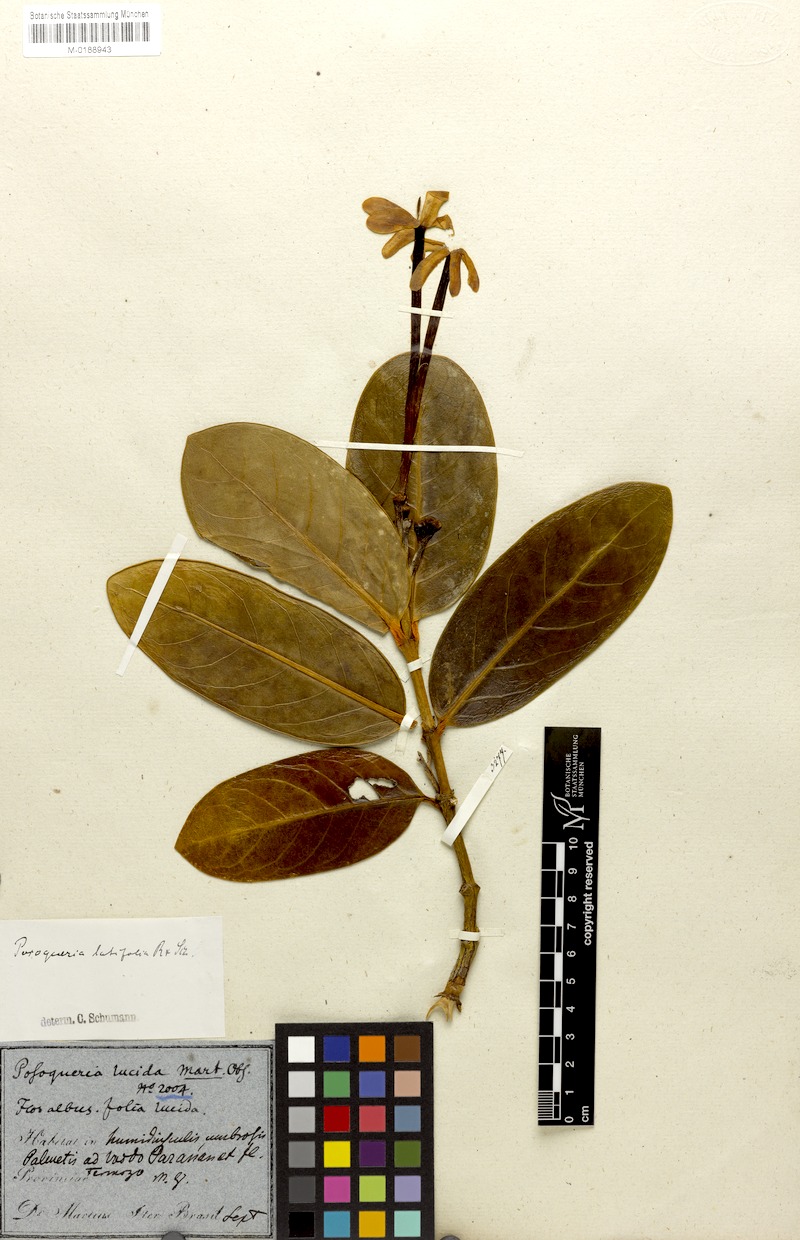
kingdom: Plantae
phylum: Tracheophyta
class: Magnoliopsida
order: Gentianales
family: Rubiaceae
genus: Posoqueria
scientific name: Posoqueria latifolia
